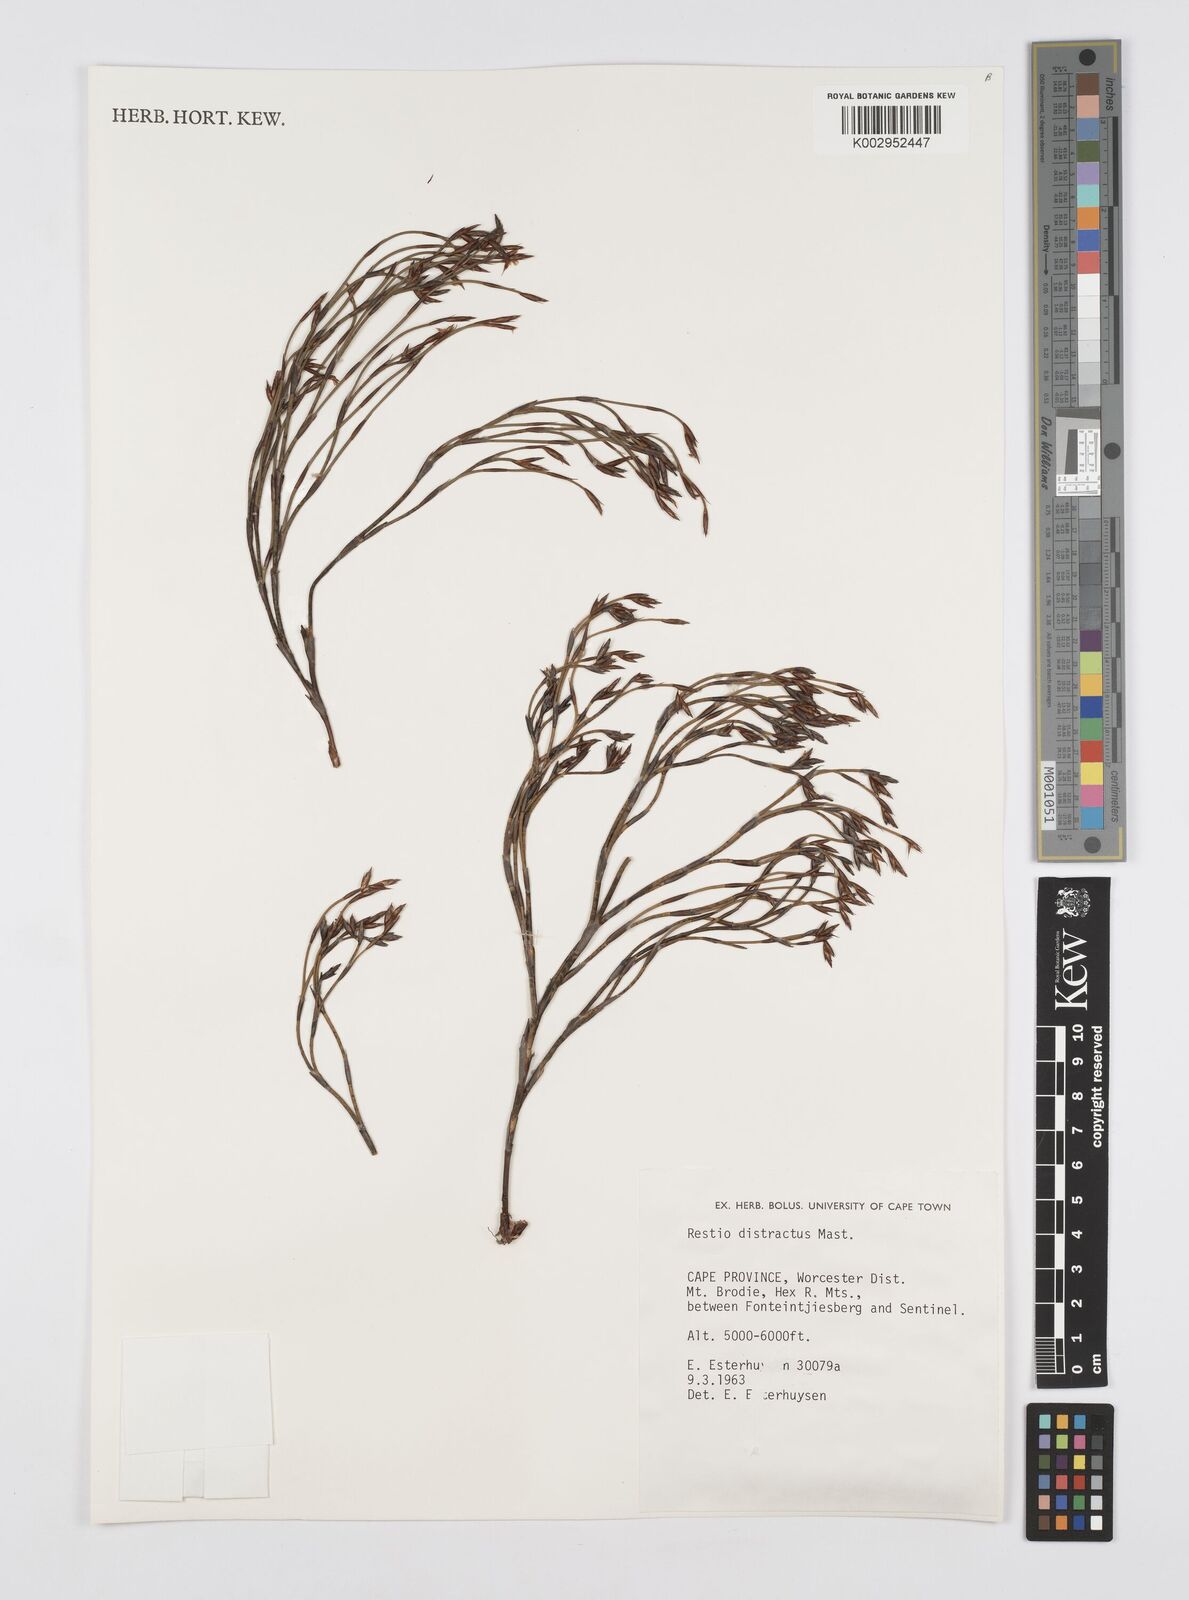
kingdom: Plantae
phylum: Tracheophyta
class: Liliopsida
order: Poales
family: Restionaceae
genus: Restio
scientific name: Restio distractus
